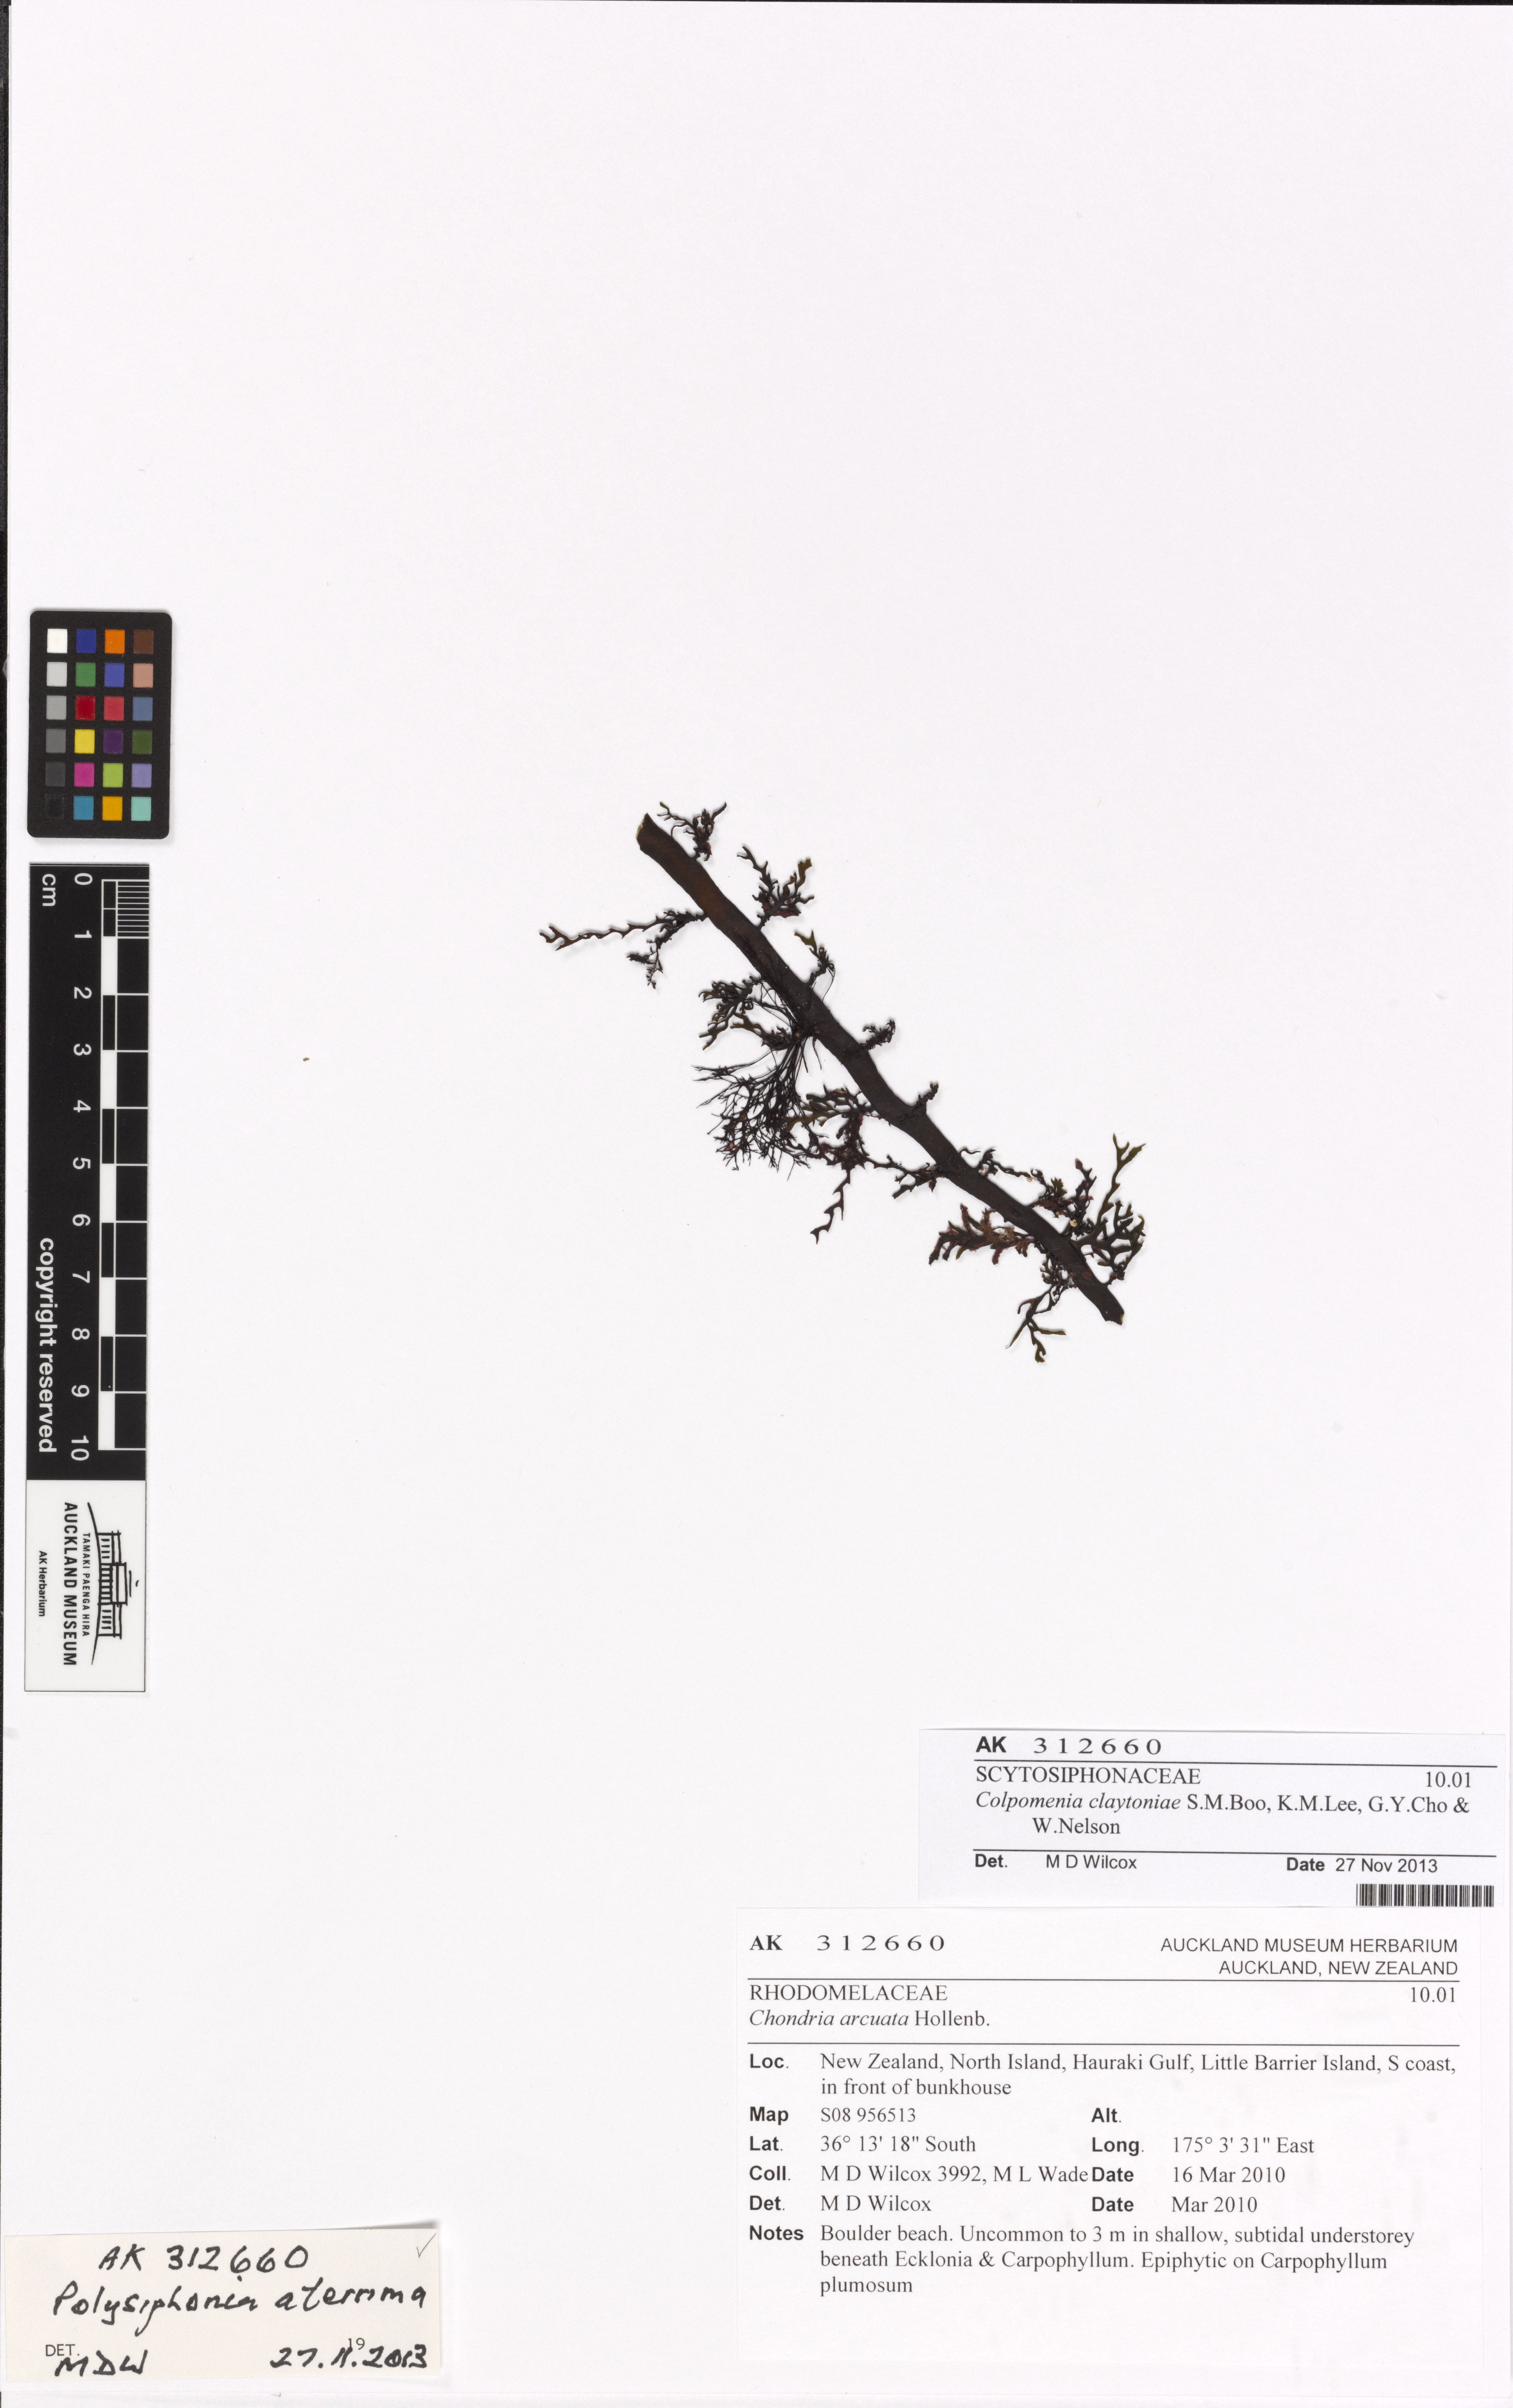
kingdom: Plantae
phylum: Rhodophyta
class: Florideophyceae
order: Ceramiales
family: Rhodomelaceae
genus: Polysiphonia
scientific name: Polysiphonia
